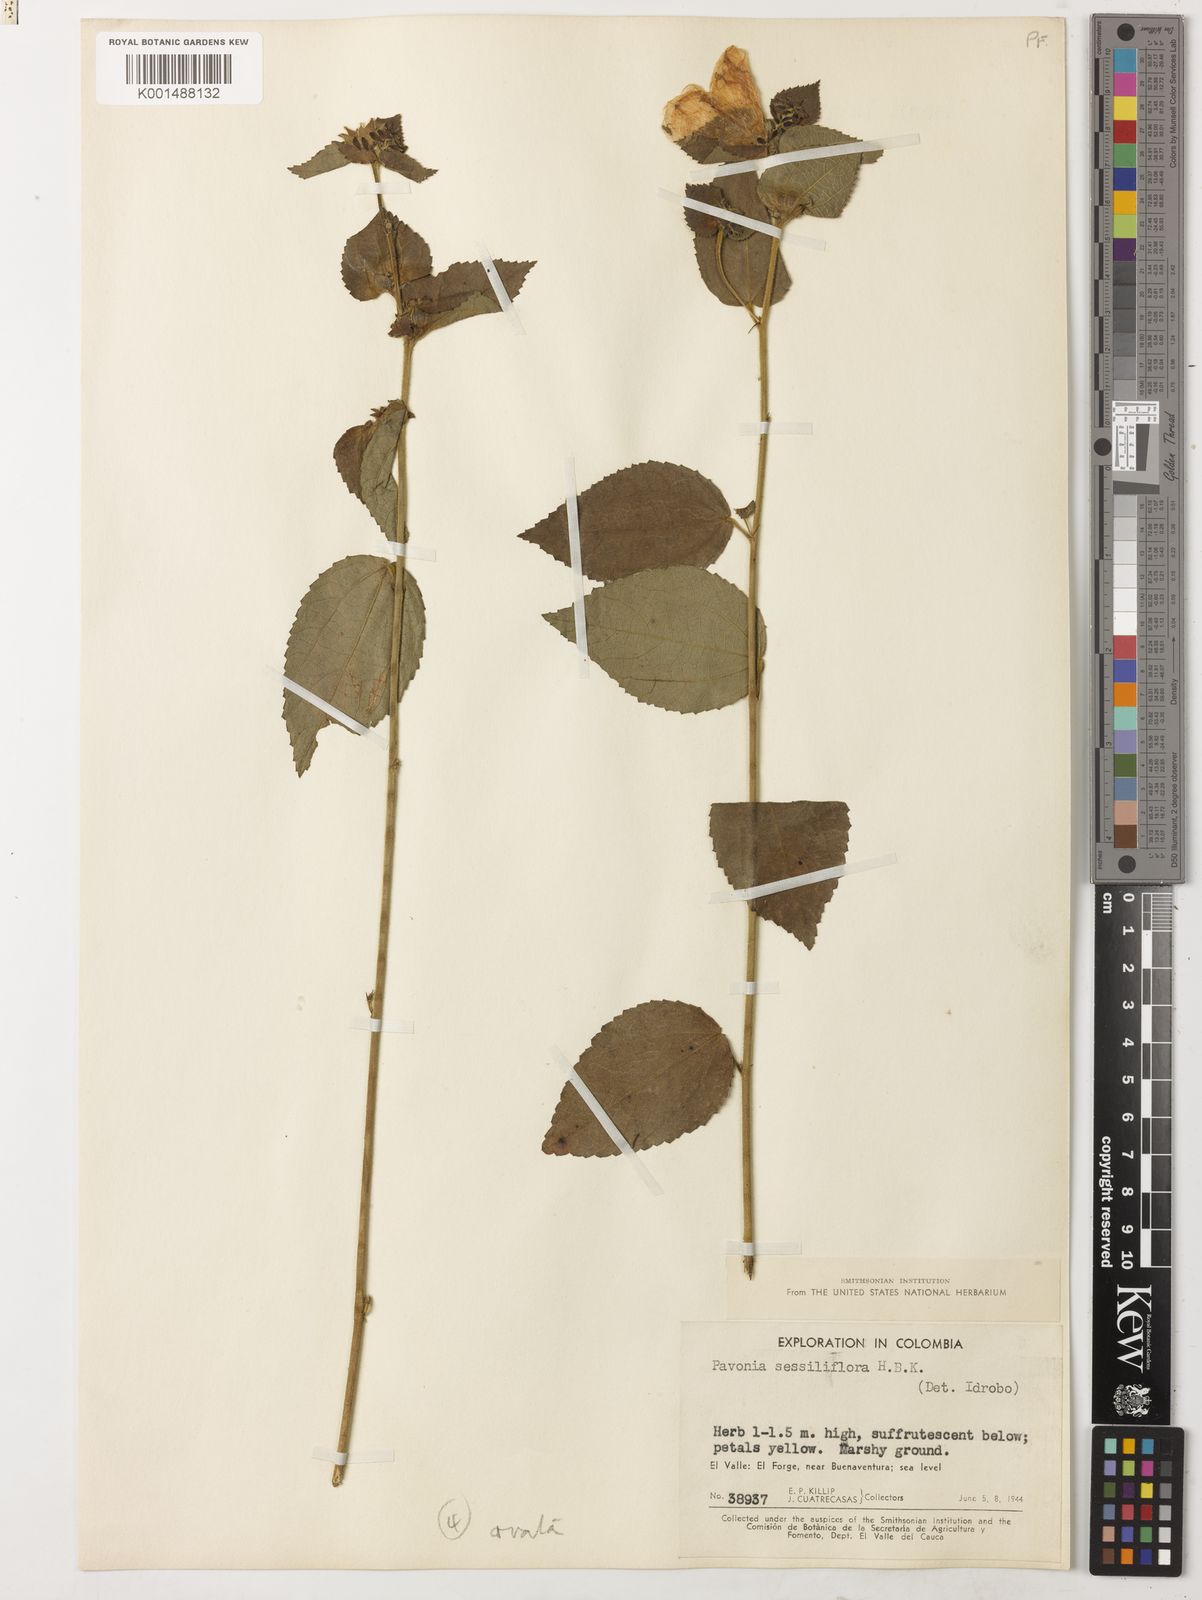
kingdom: Plantae
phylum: Tracheophyta
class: Magnoliopsida
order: Malvales
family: Malvaceae
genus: Peltaea
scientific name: Peltaea ovata
